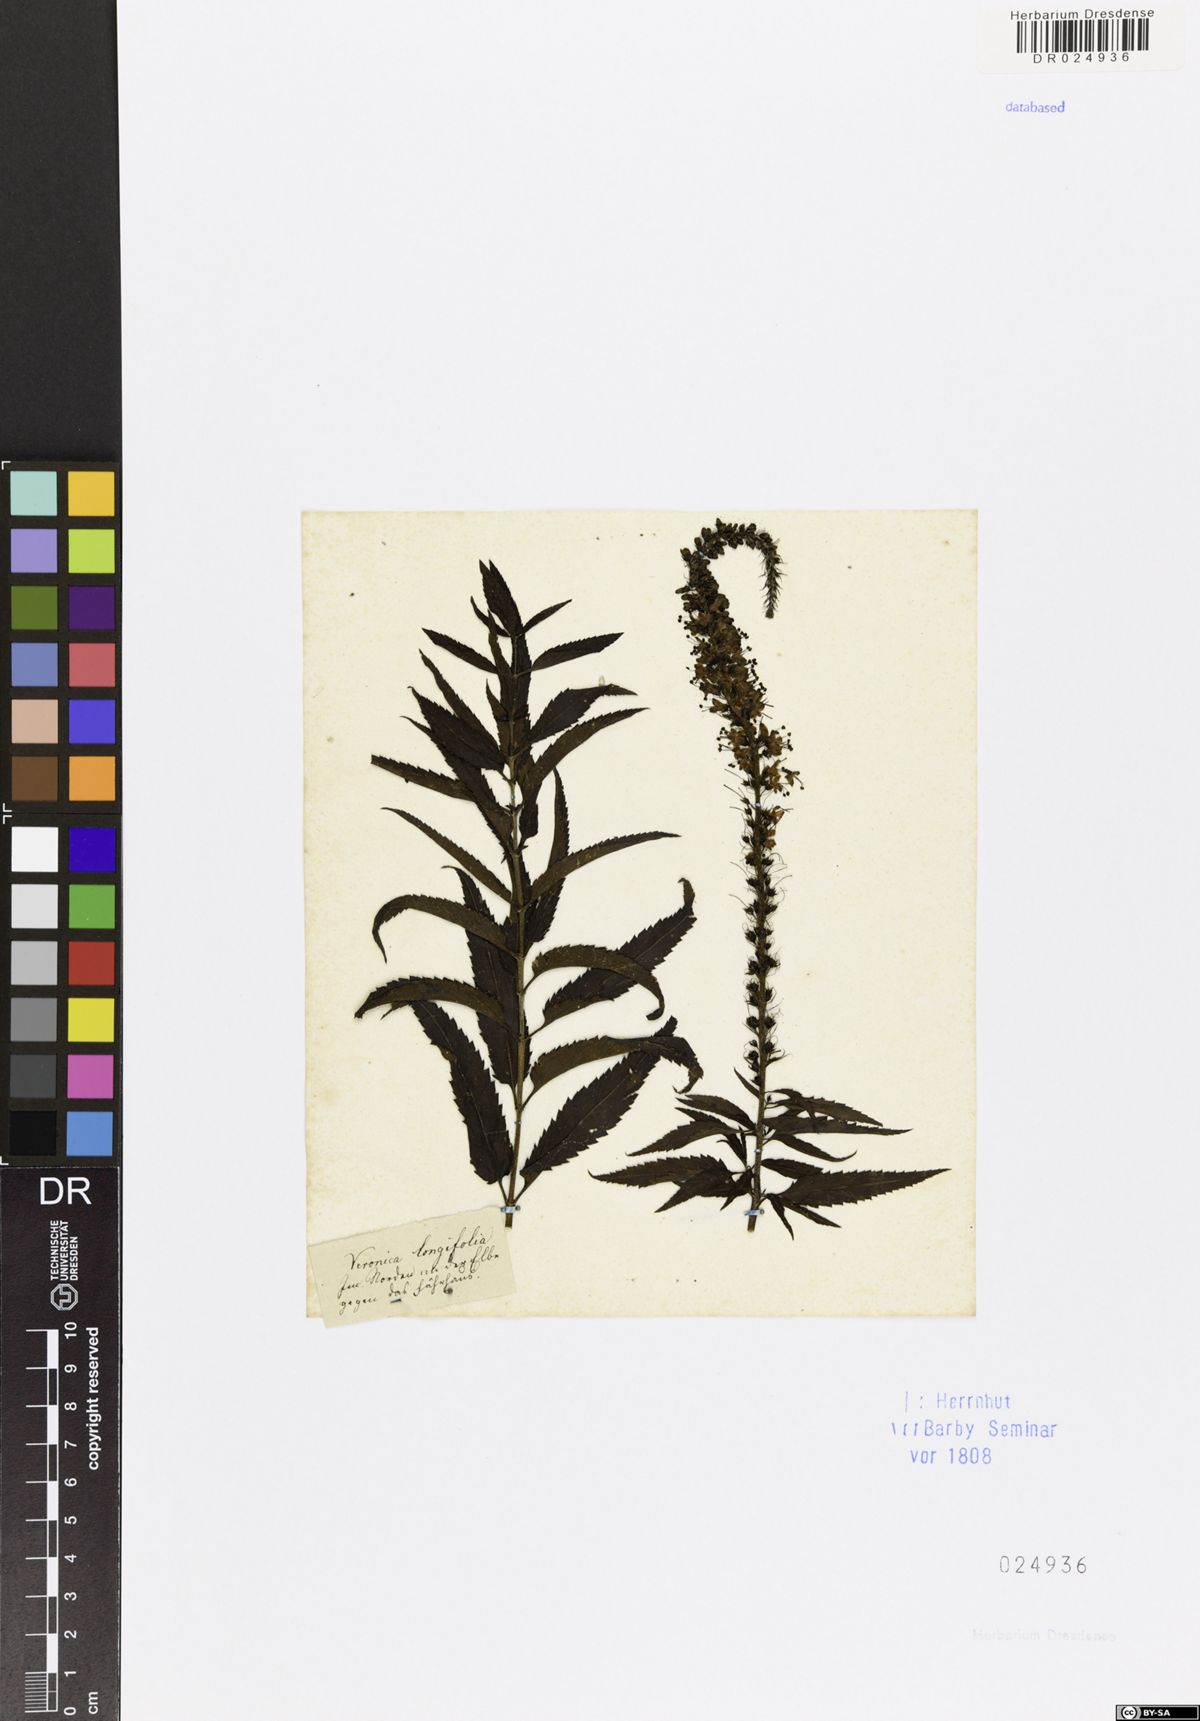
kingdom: Plantae
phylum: Tracheophyta
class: Magnoliopsida
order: Lamiales
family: Plantaginaceae
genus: Veronica
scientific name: Veronica longifolia
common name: Garden speedwell
